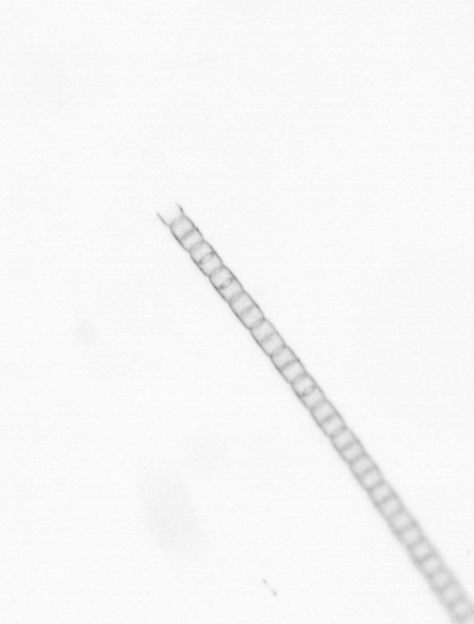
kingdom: Chromista
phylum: Ochrophyta
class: Bacillariophyceae
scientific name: Bacillariophyceae
